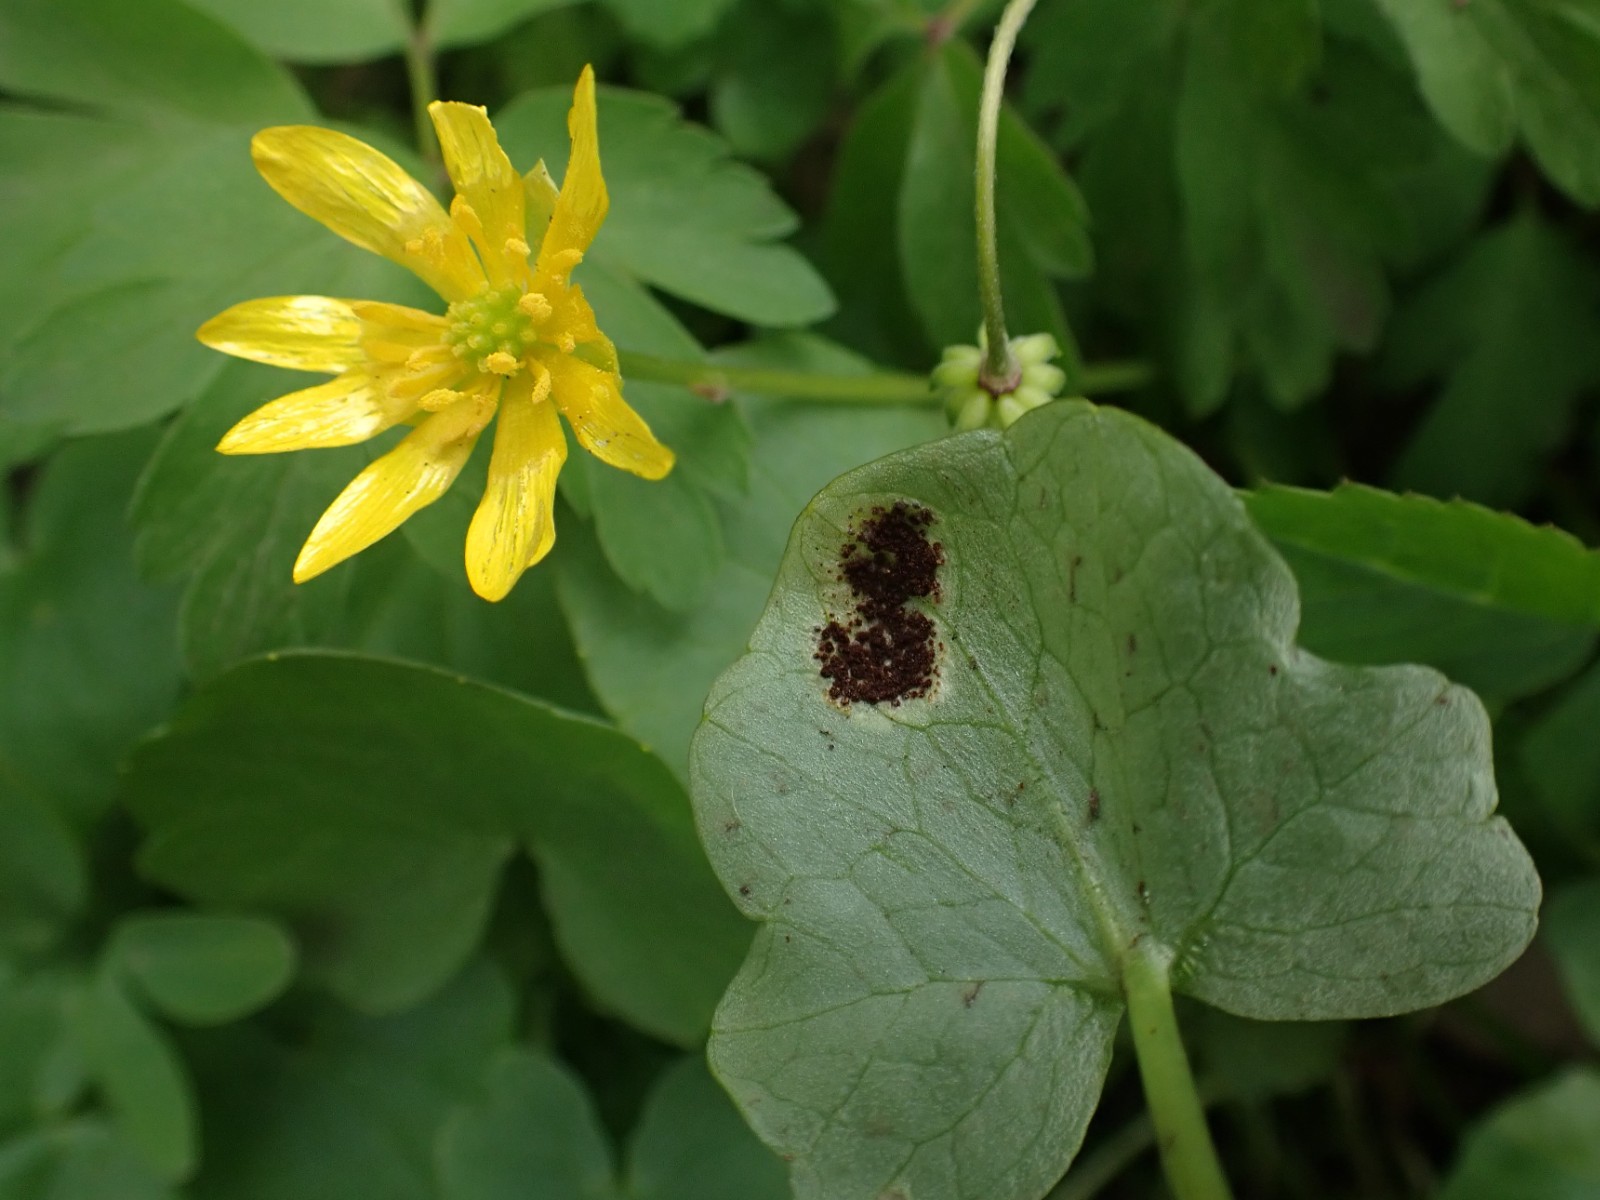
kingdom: Fungi
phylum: Basidiomycota
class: Pucciniomycetes
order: Pucciniales
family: Pucciniaceae
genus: Uromyces
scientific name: Uromyces ficariae
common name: vorterod-encellerust
